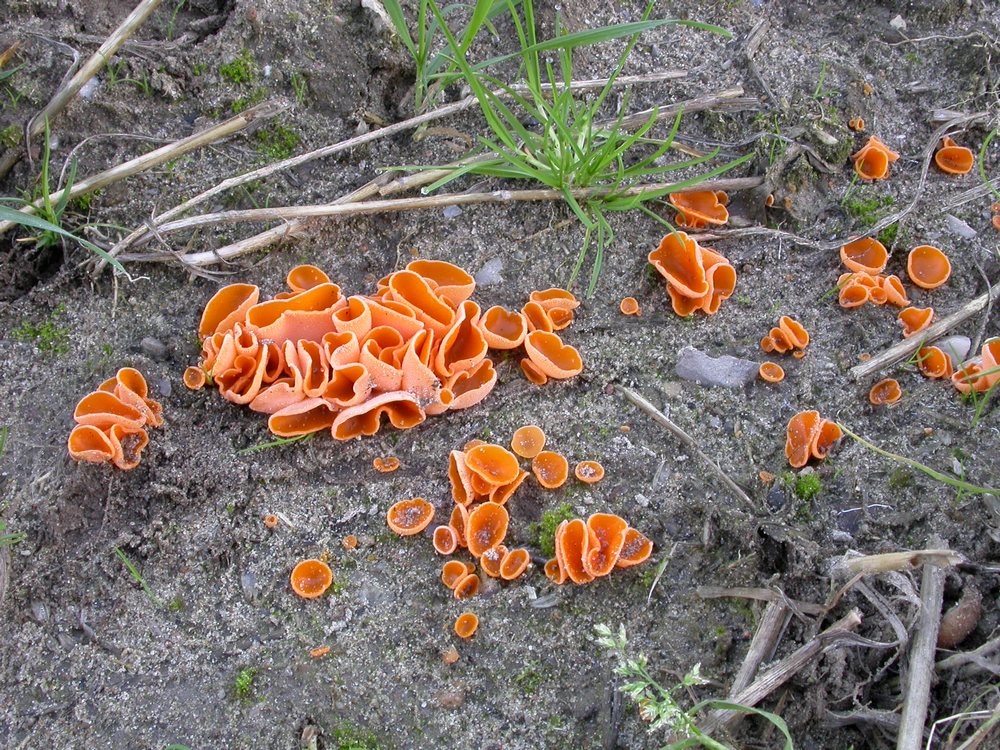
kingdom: Fungi
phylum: Ascomycota
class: Pezizomycetes
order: Pezizales
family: Pyronemataceae
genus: Aleuria
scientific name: Aleuria aurantia
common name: almindelig orangebæger
